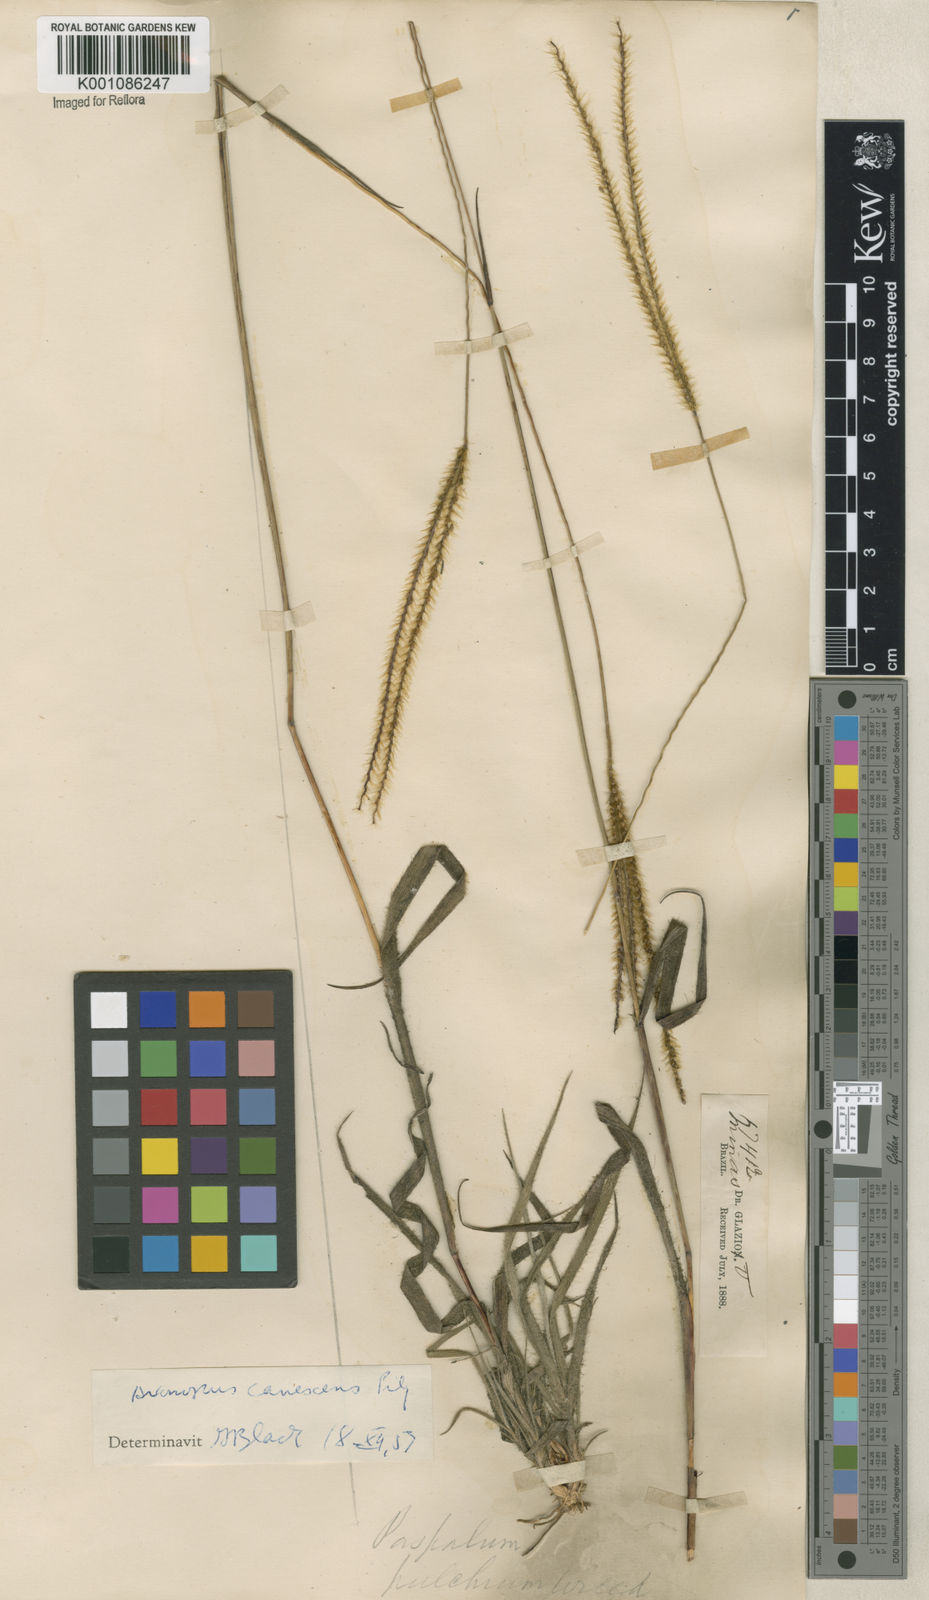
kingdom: Plantae
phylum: Tracheophyta
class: Liliopsida
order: Poales
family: Poaceae
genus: Axonopus
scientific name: Axonopus aureus
